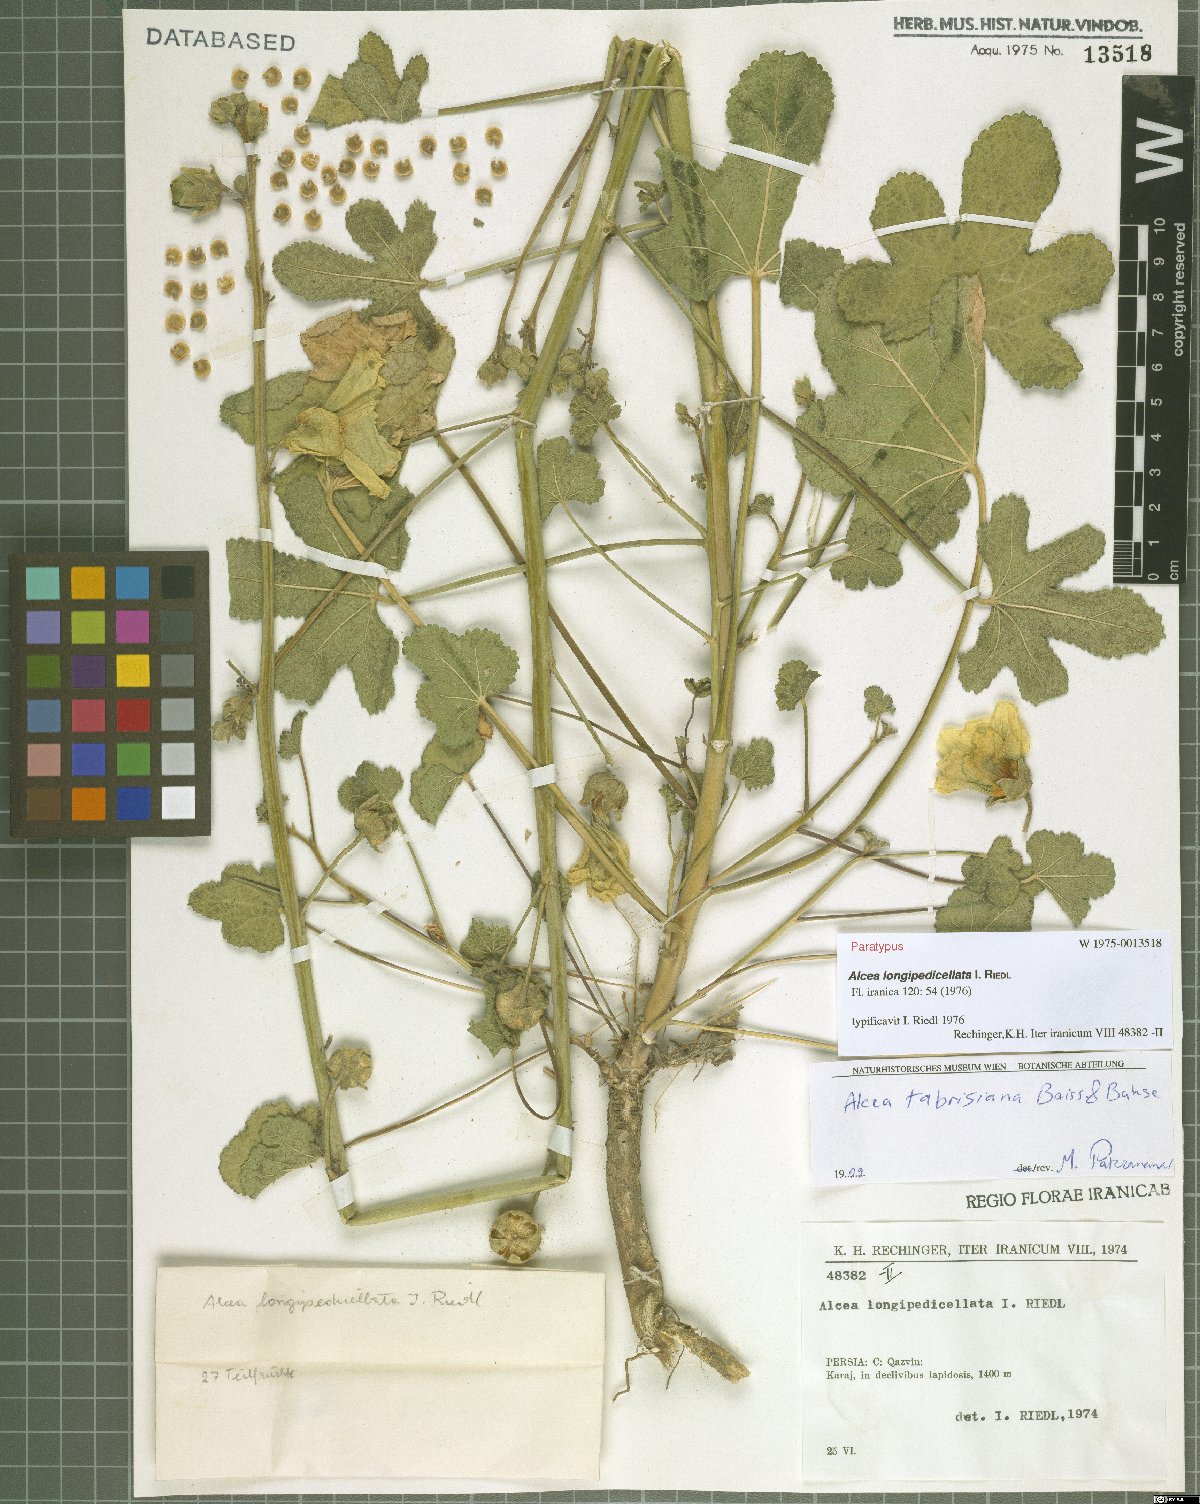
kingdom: Plantae
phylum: Tracheophyta
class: Magnoliopsida
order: Malvales
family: Malvaceae
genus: Alcea
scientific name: Alcea tabrisiana
